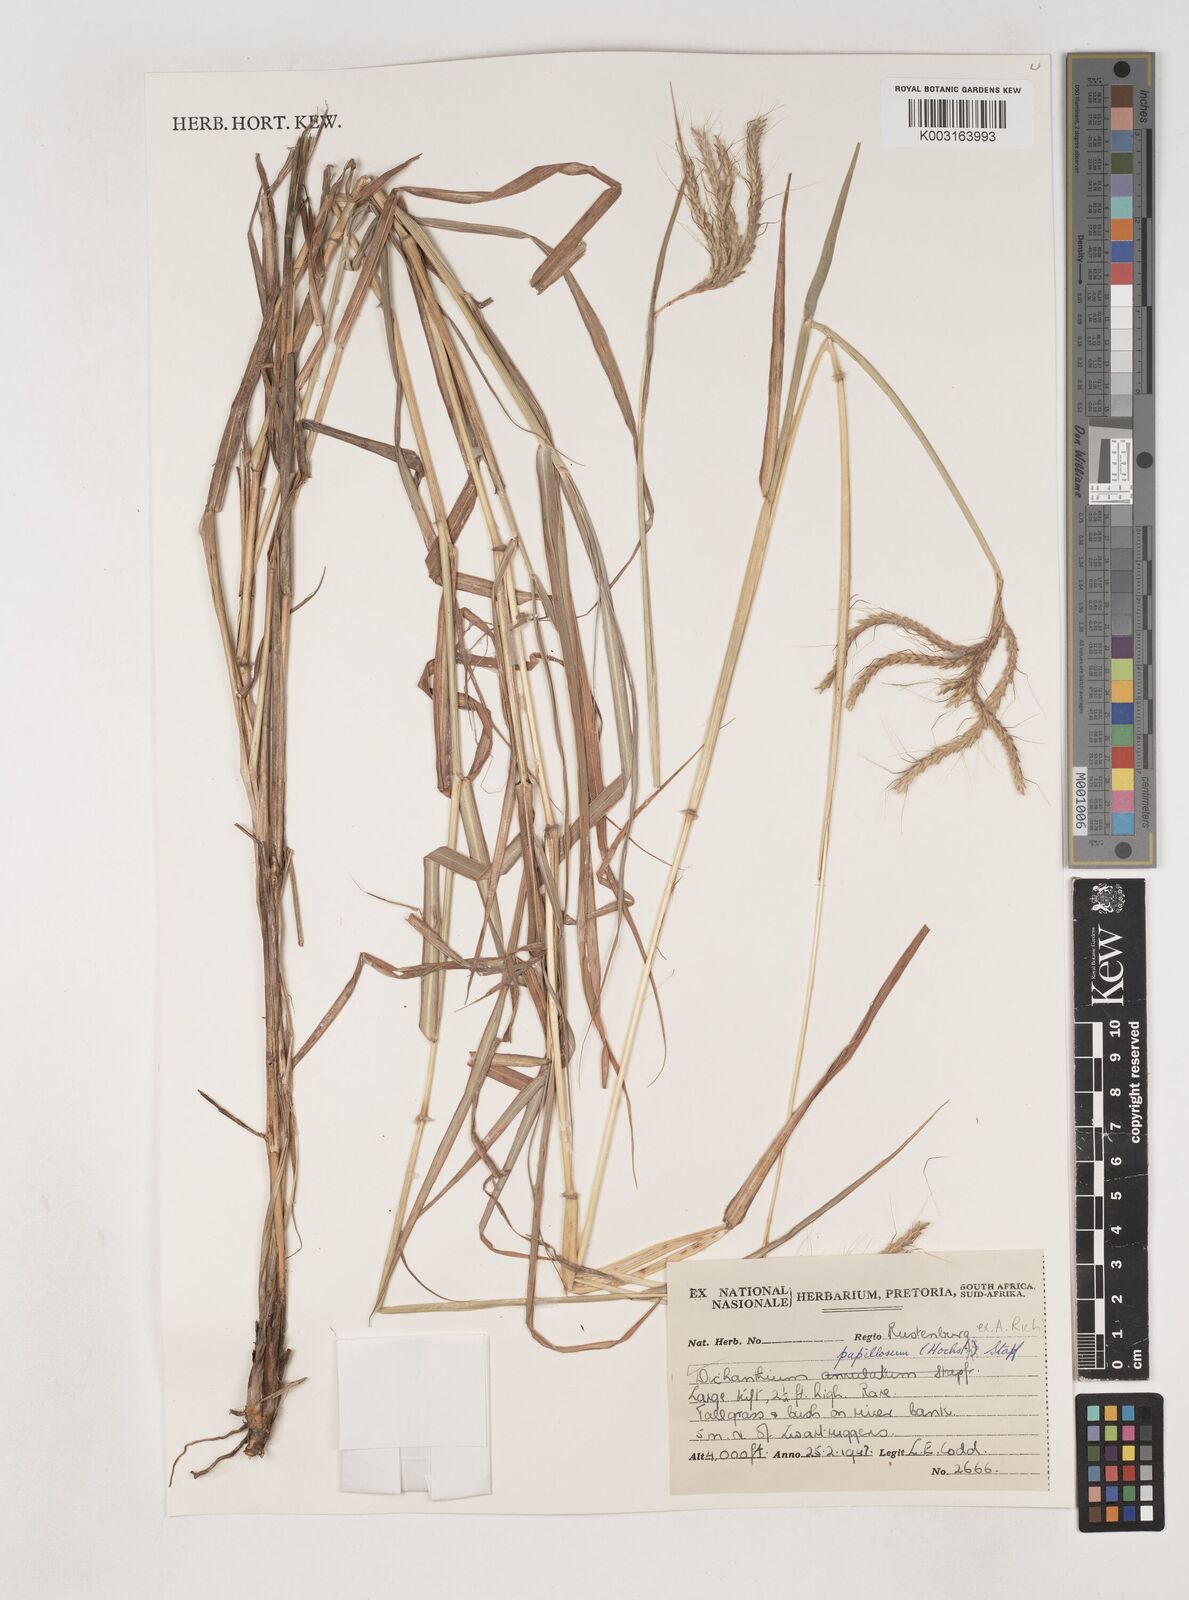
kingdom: Plantae
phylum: Tracheophyta
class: Liliopsida
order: Poales
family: Poaceae
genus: Dichanthium
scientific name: Dichanthium annulatum
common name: Kleberg's bluestem
